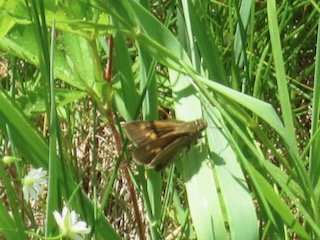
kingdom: Animalia
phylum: Arthropoda
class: Insecta
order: Lepidoptera
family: Hesperiidae
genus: Polites
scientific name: Polites themistocles
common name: Tawny-edged Skipper
